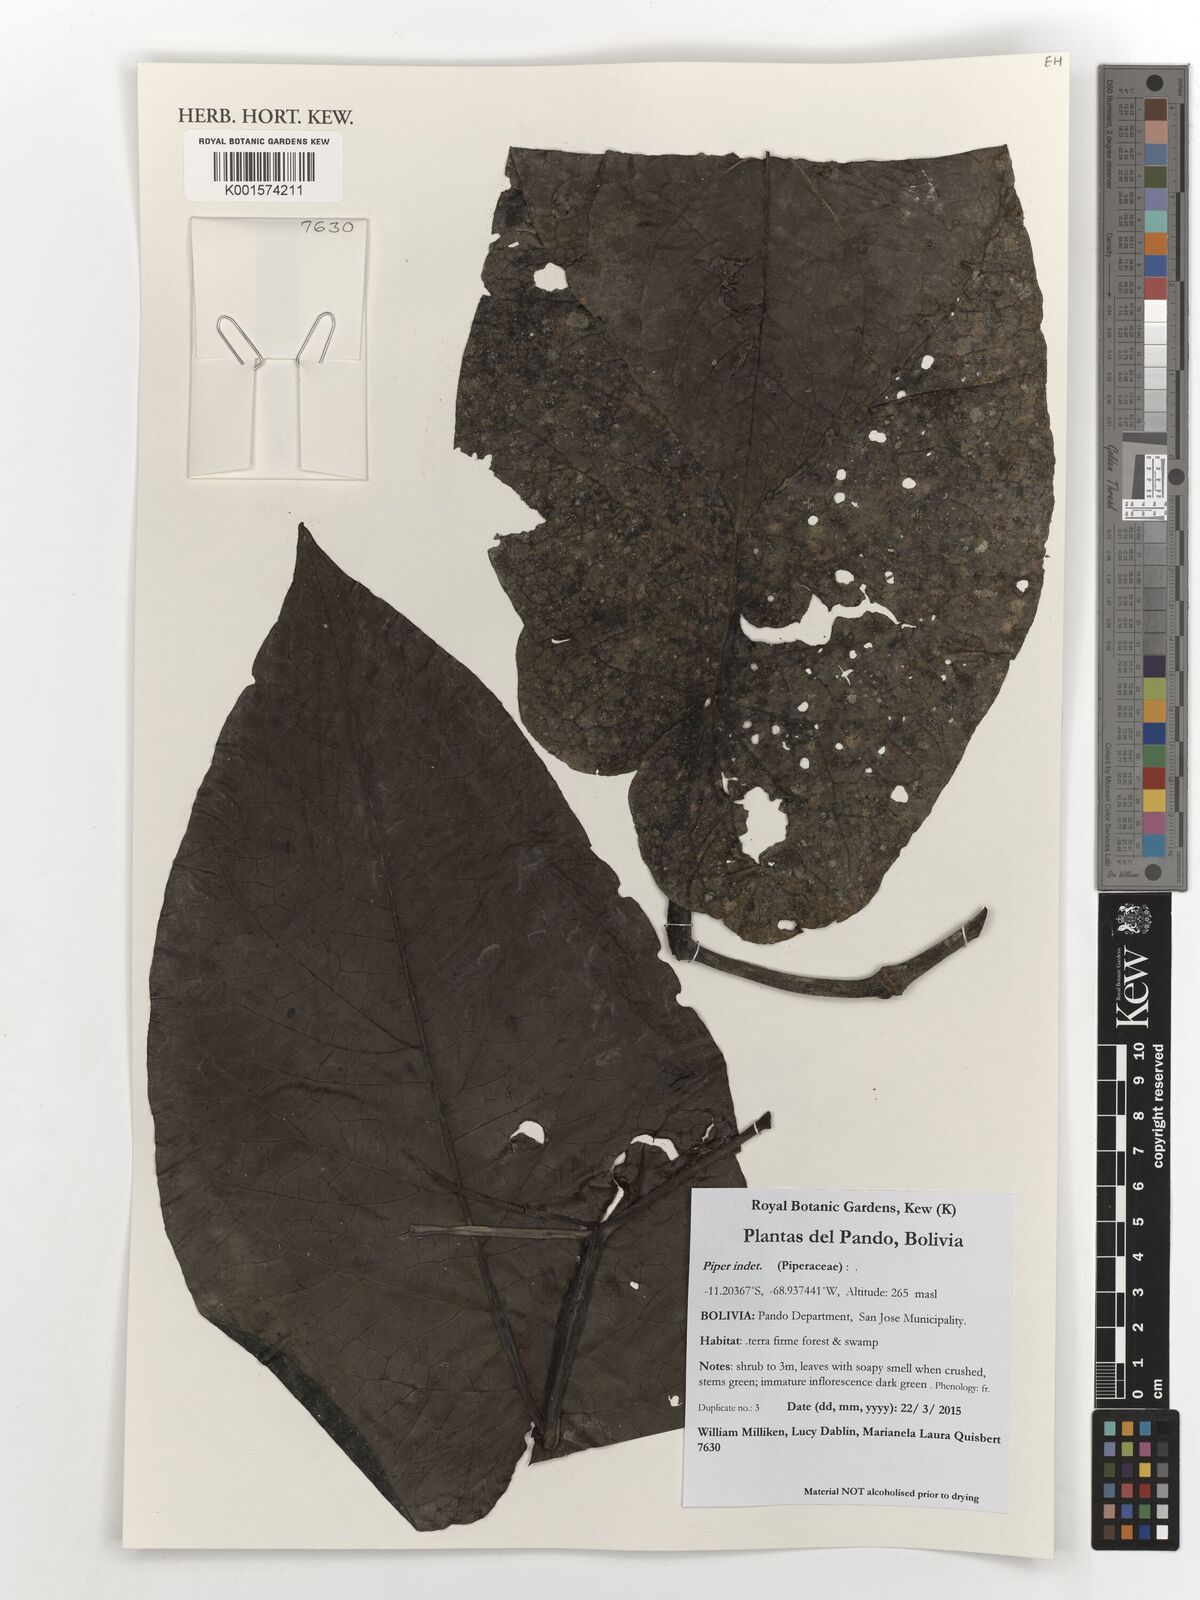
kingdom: Plantae
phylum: Tracheophyta
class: Magnoliopsida
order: Piperales
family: Piperaceae
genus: Piper
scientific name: Piper
